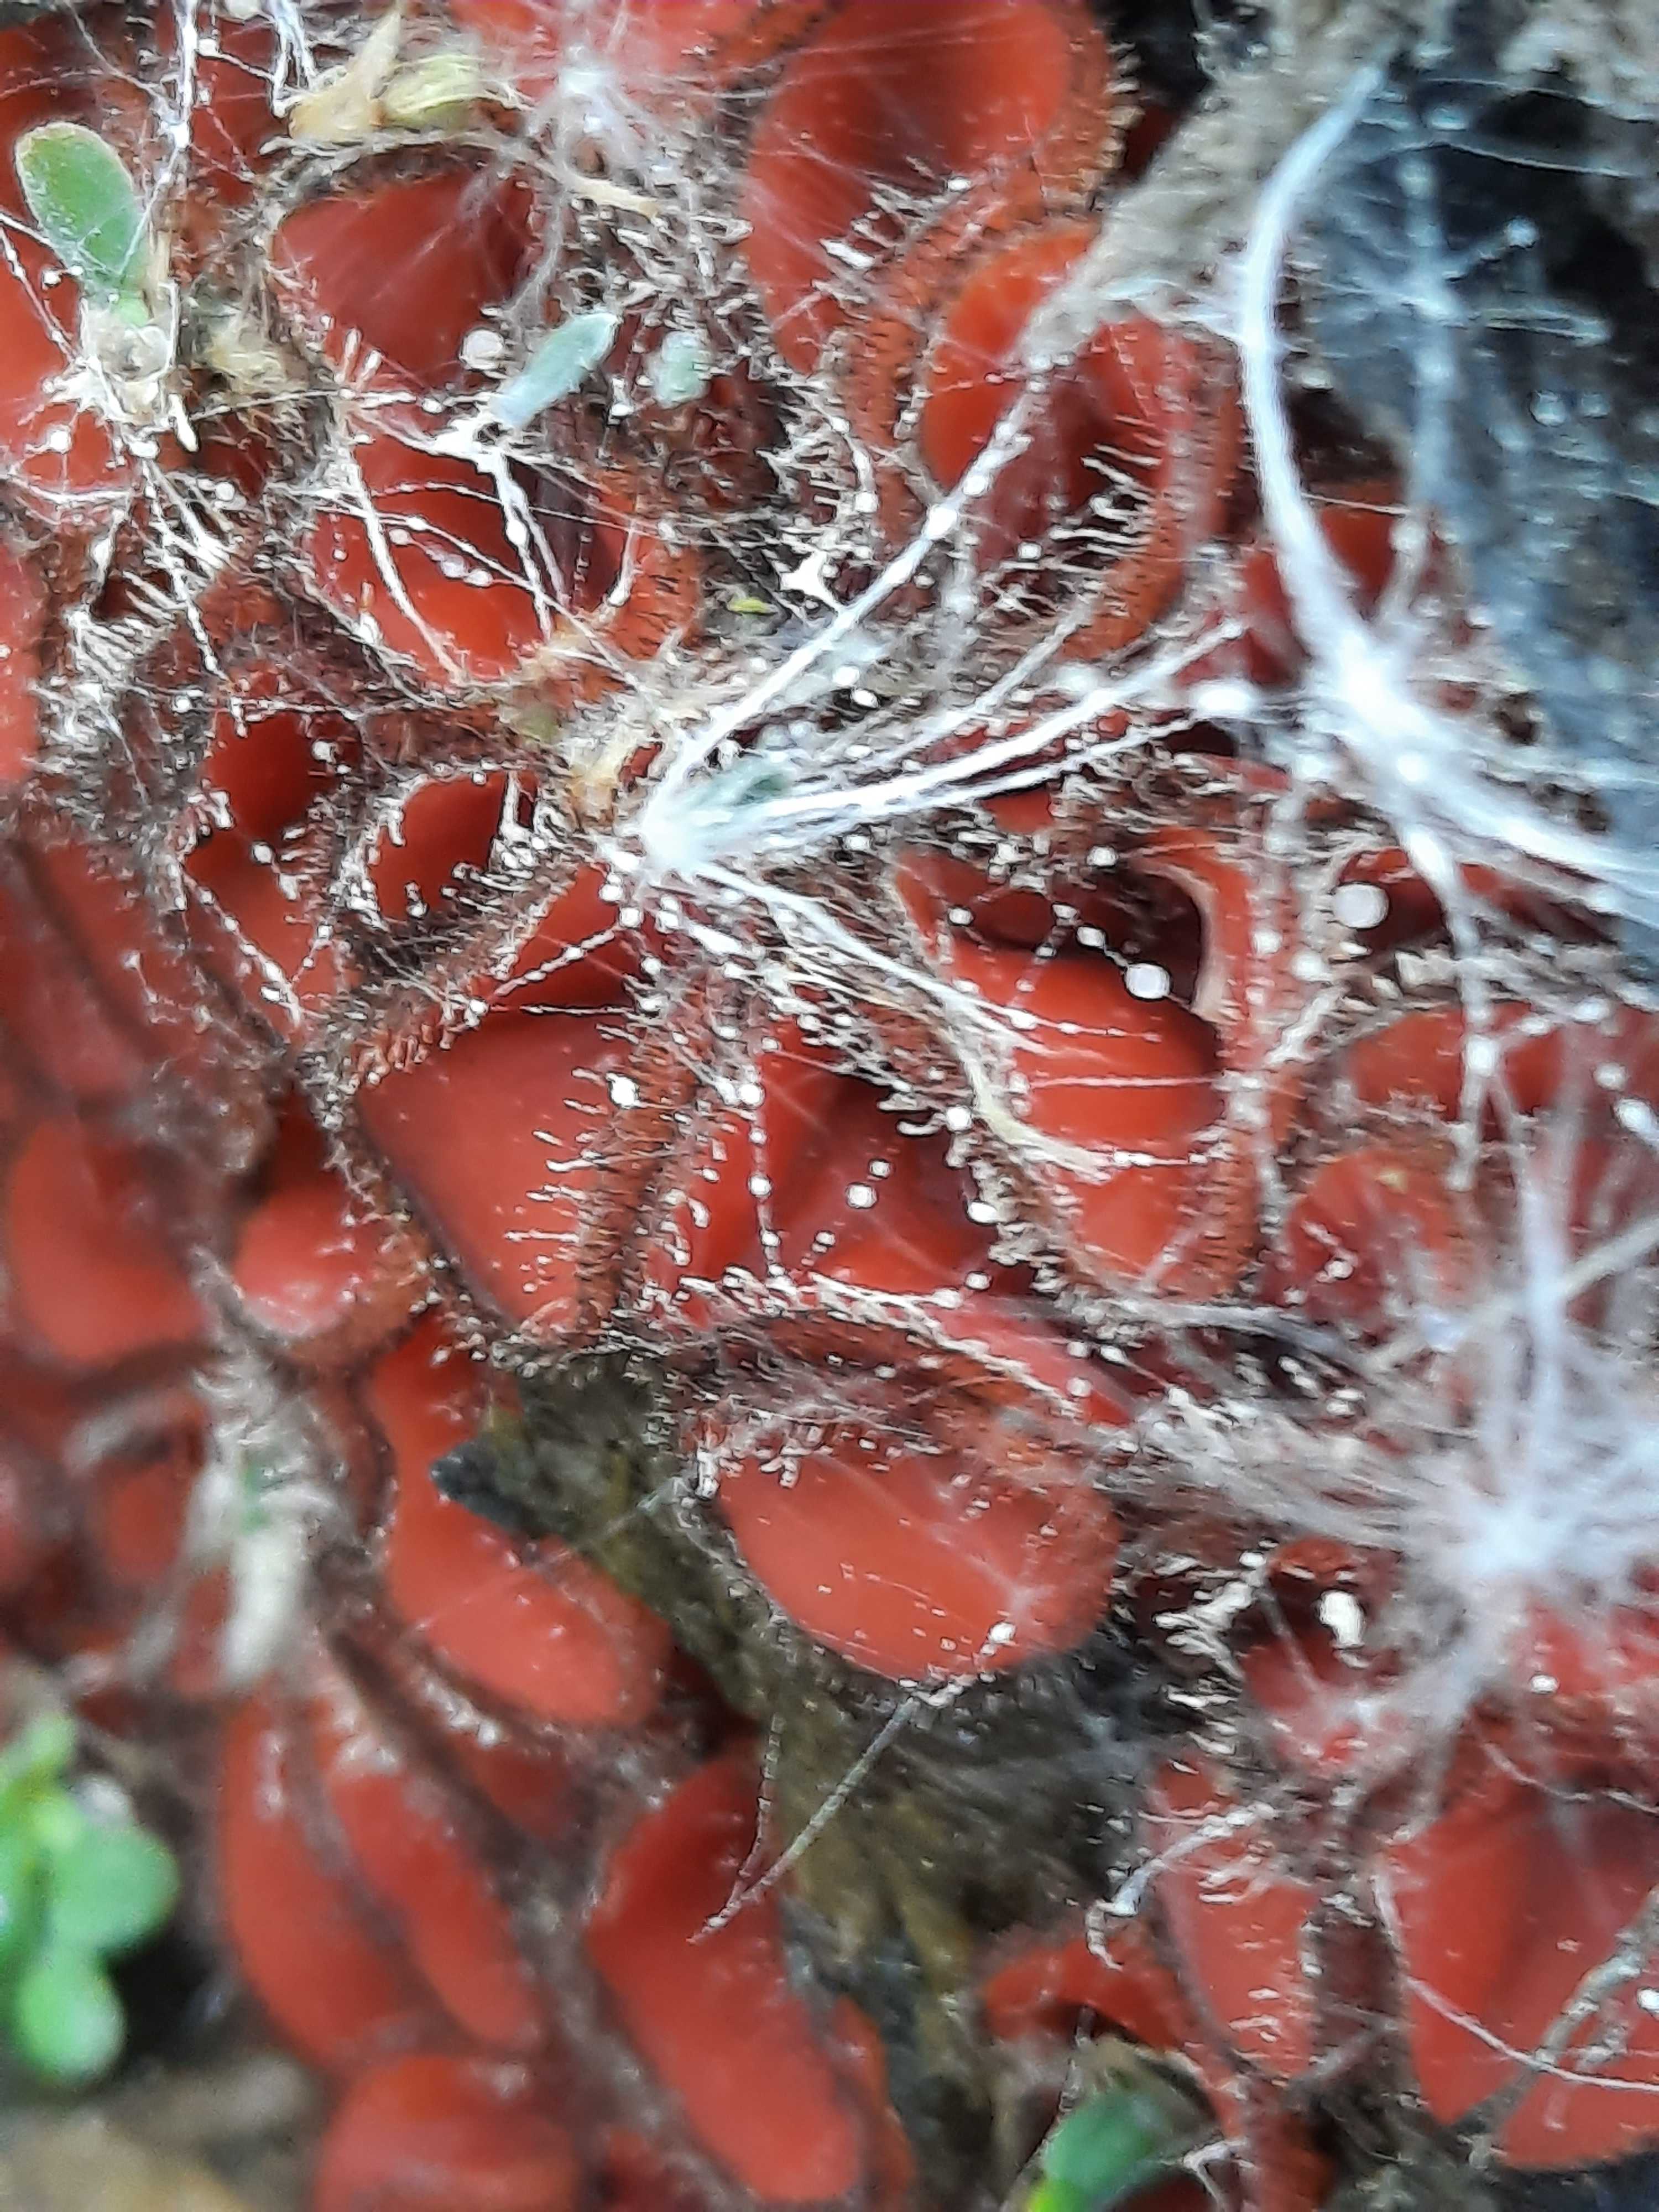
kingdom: Fungi
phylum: Ascomycota
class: Pezizomycetes
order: Pezizales
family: Pyronemataceae
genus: Scutellinia
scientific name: Scutellinia scutellata
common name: frynset skjoldbæger
